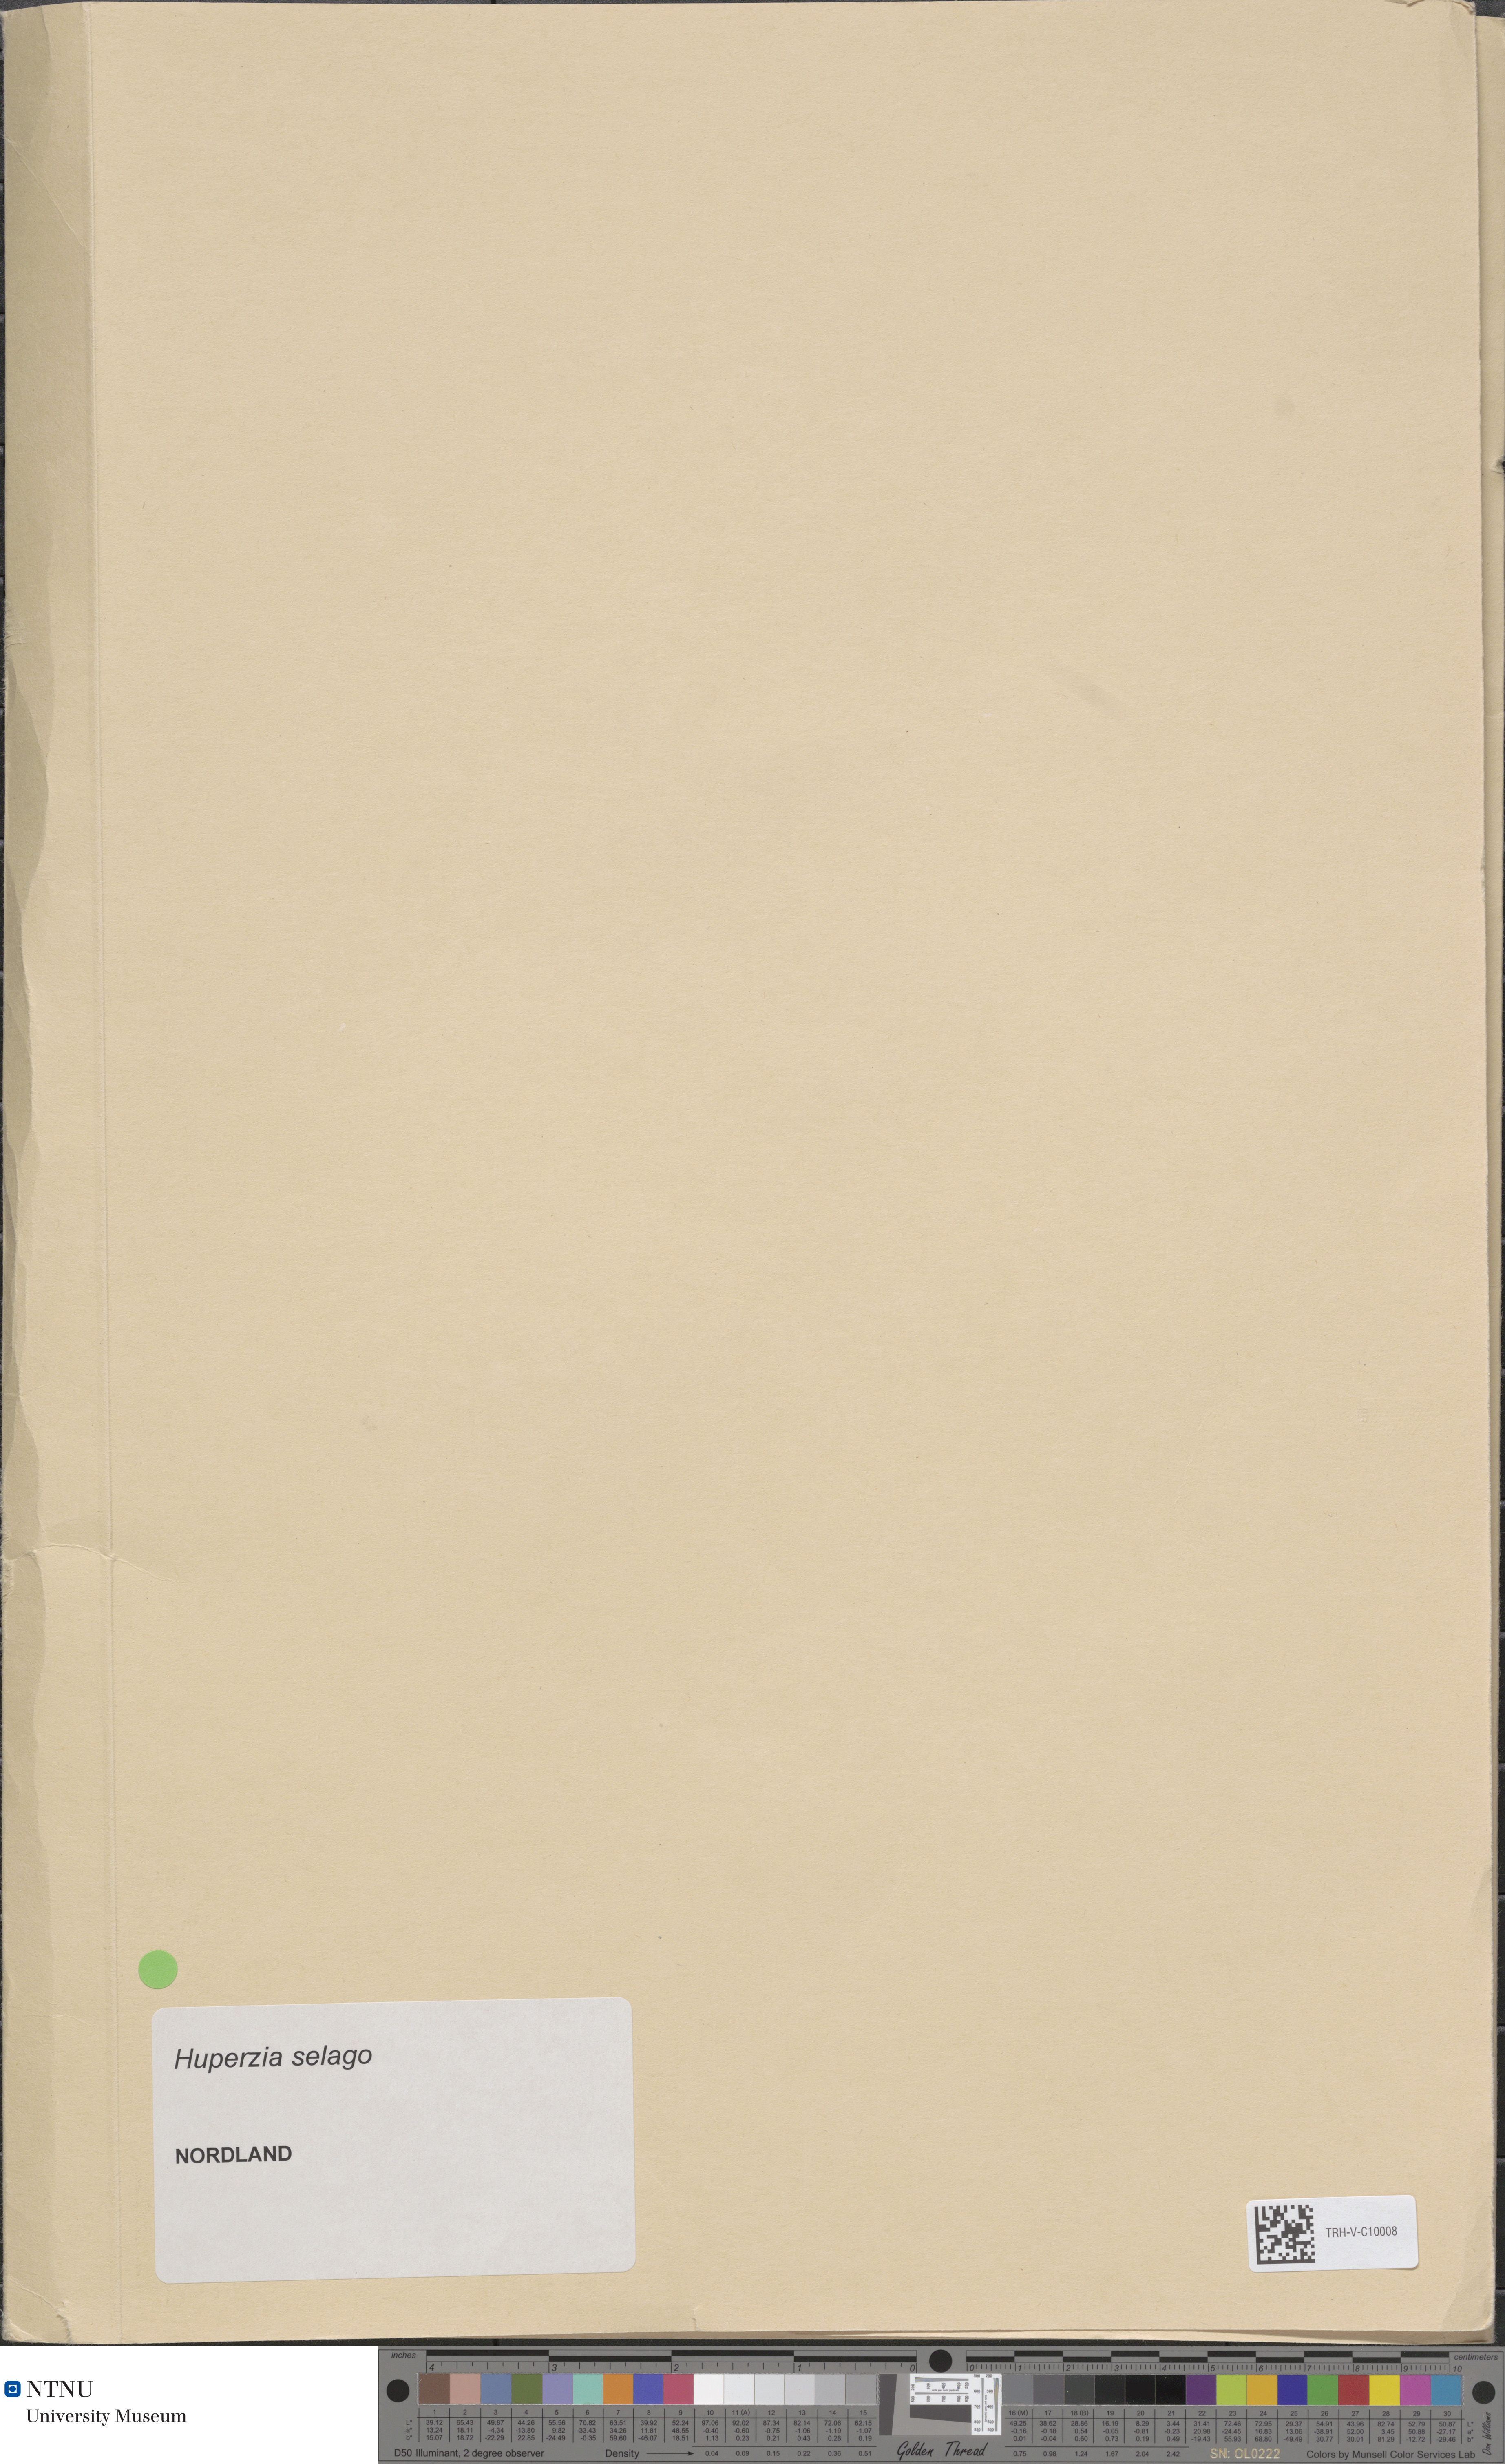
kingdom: Plantae
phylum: Tracheophyta
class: Liliopsida
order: Poales
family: Cyperaceae
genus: Carex
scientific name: Carex adelostoma
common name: Circumpolar sedge
